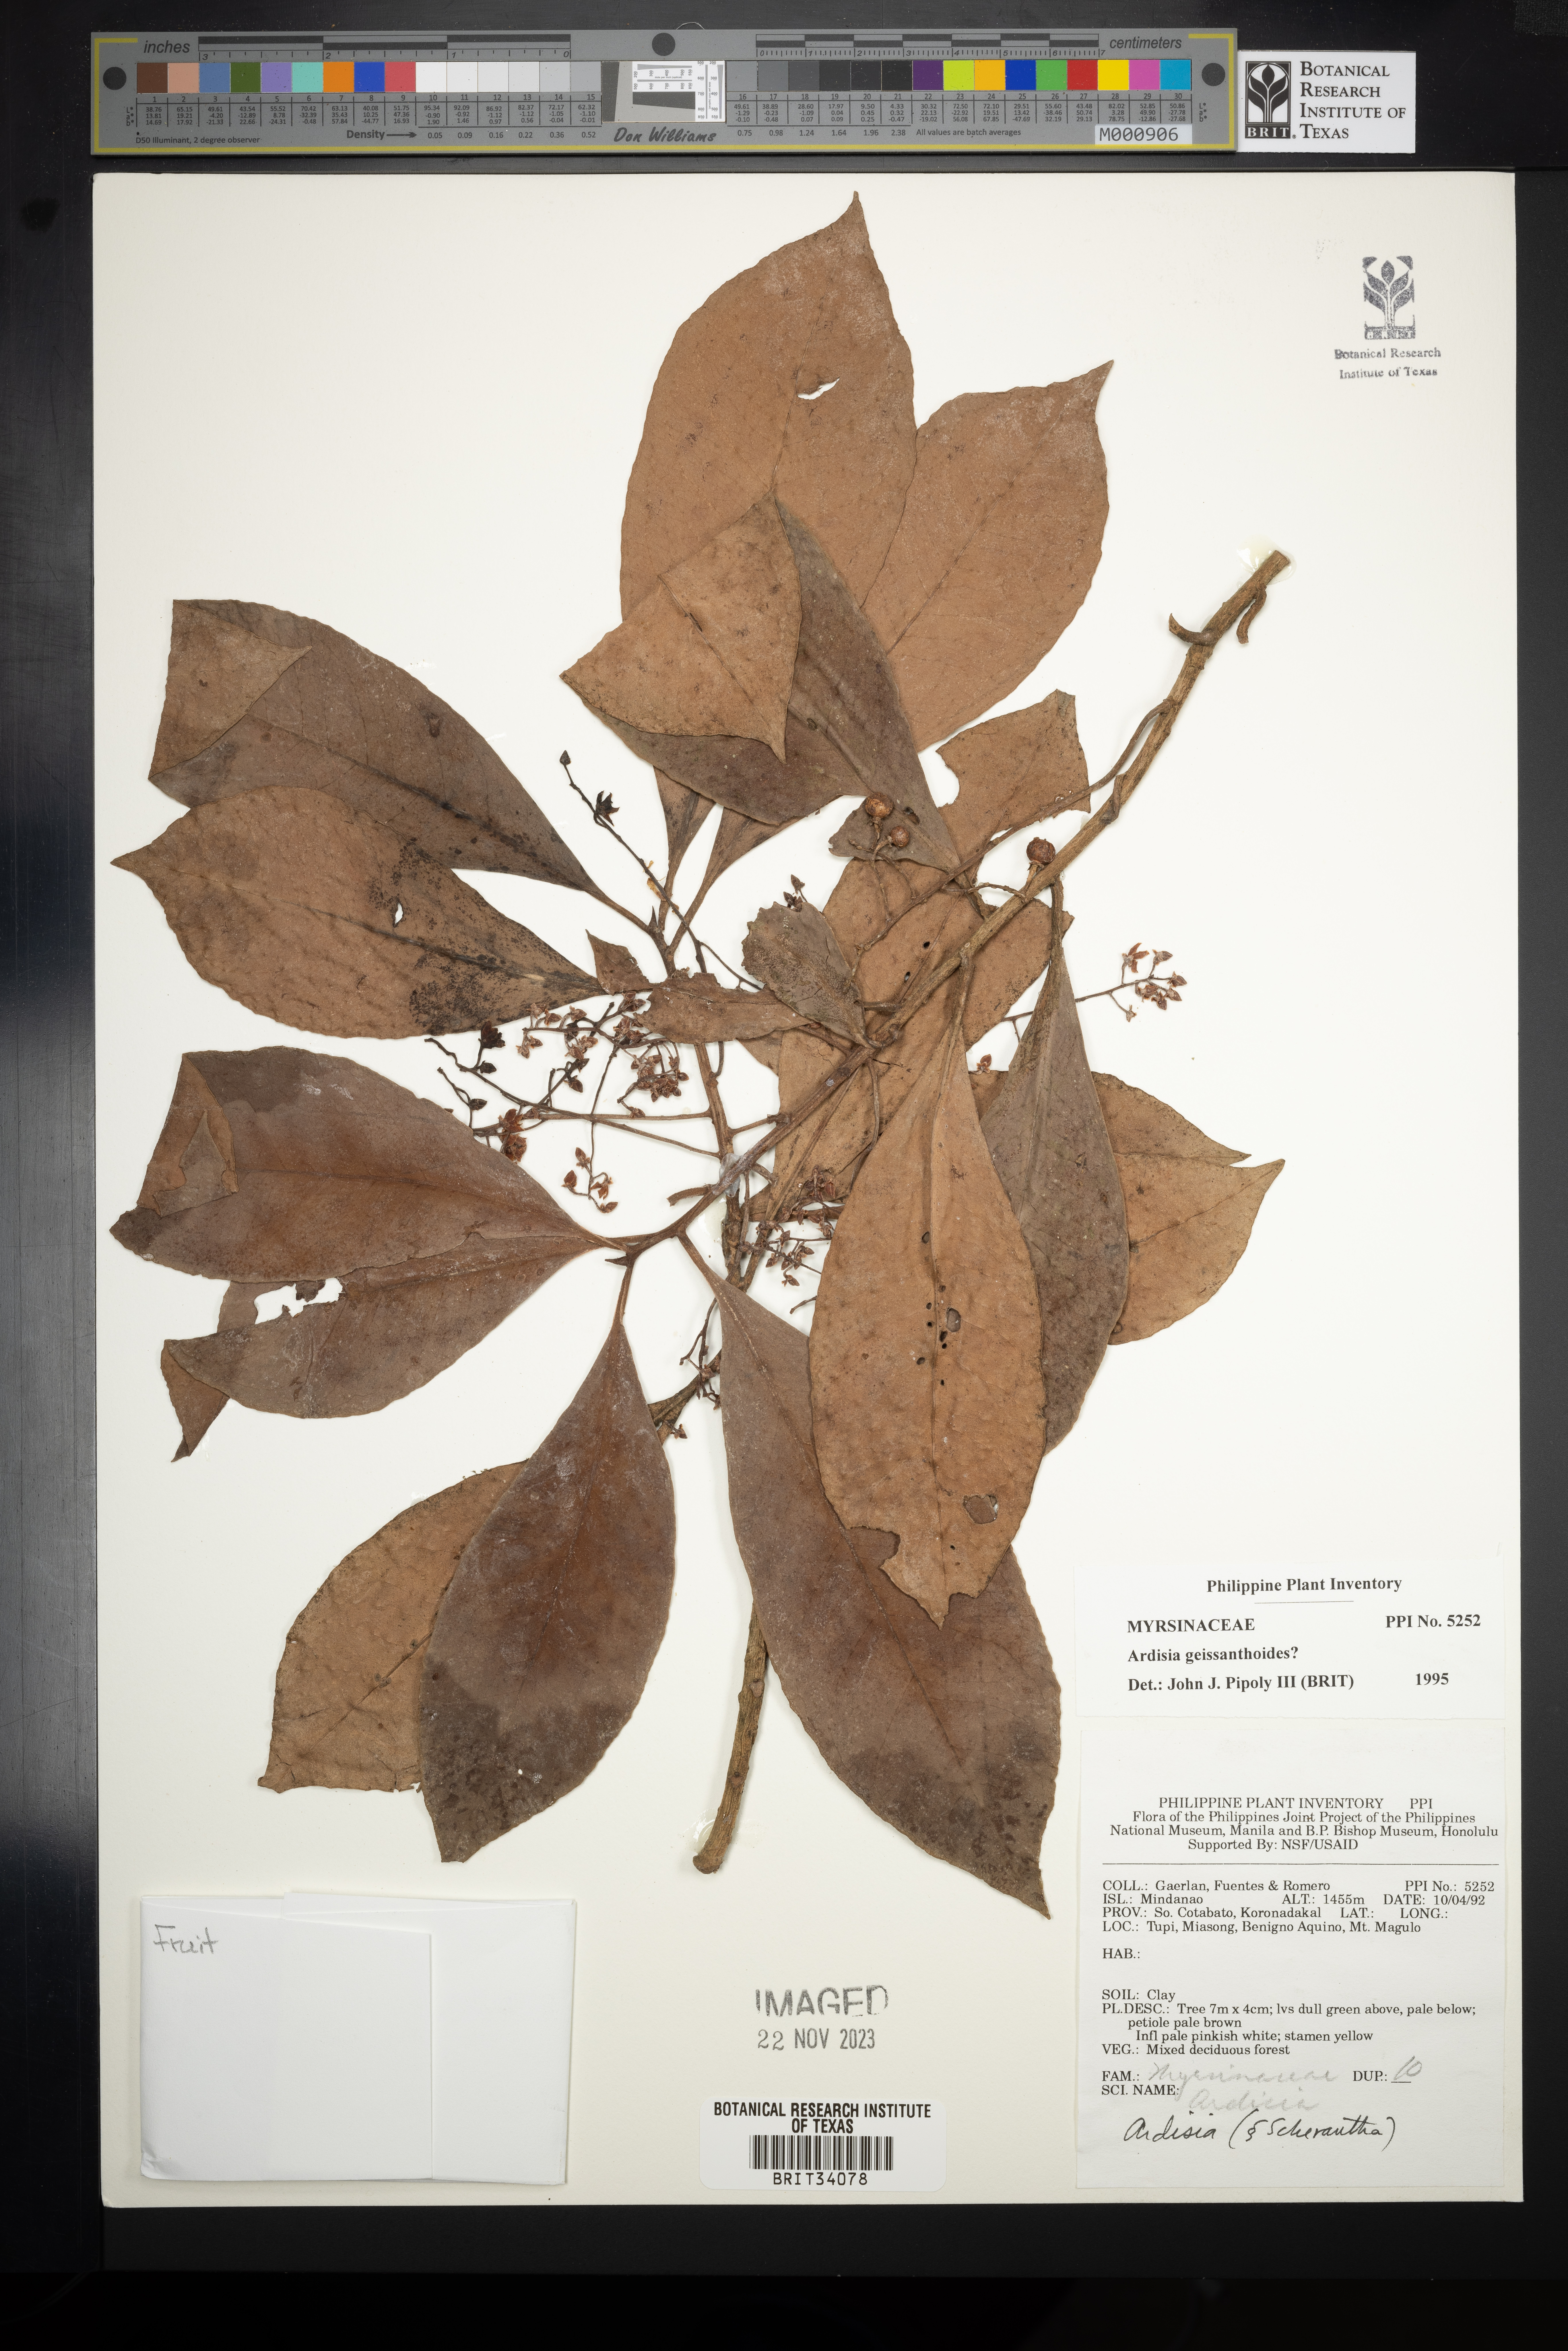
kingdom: Plantae
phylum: Tracheophyta
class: Magnoliopsida
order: Ericales
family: Primulaceae
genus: Ardisia
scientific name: Ardisia geissanthoides
